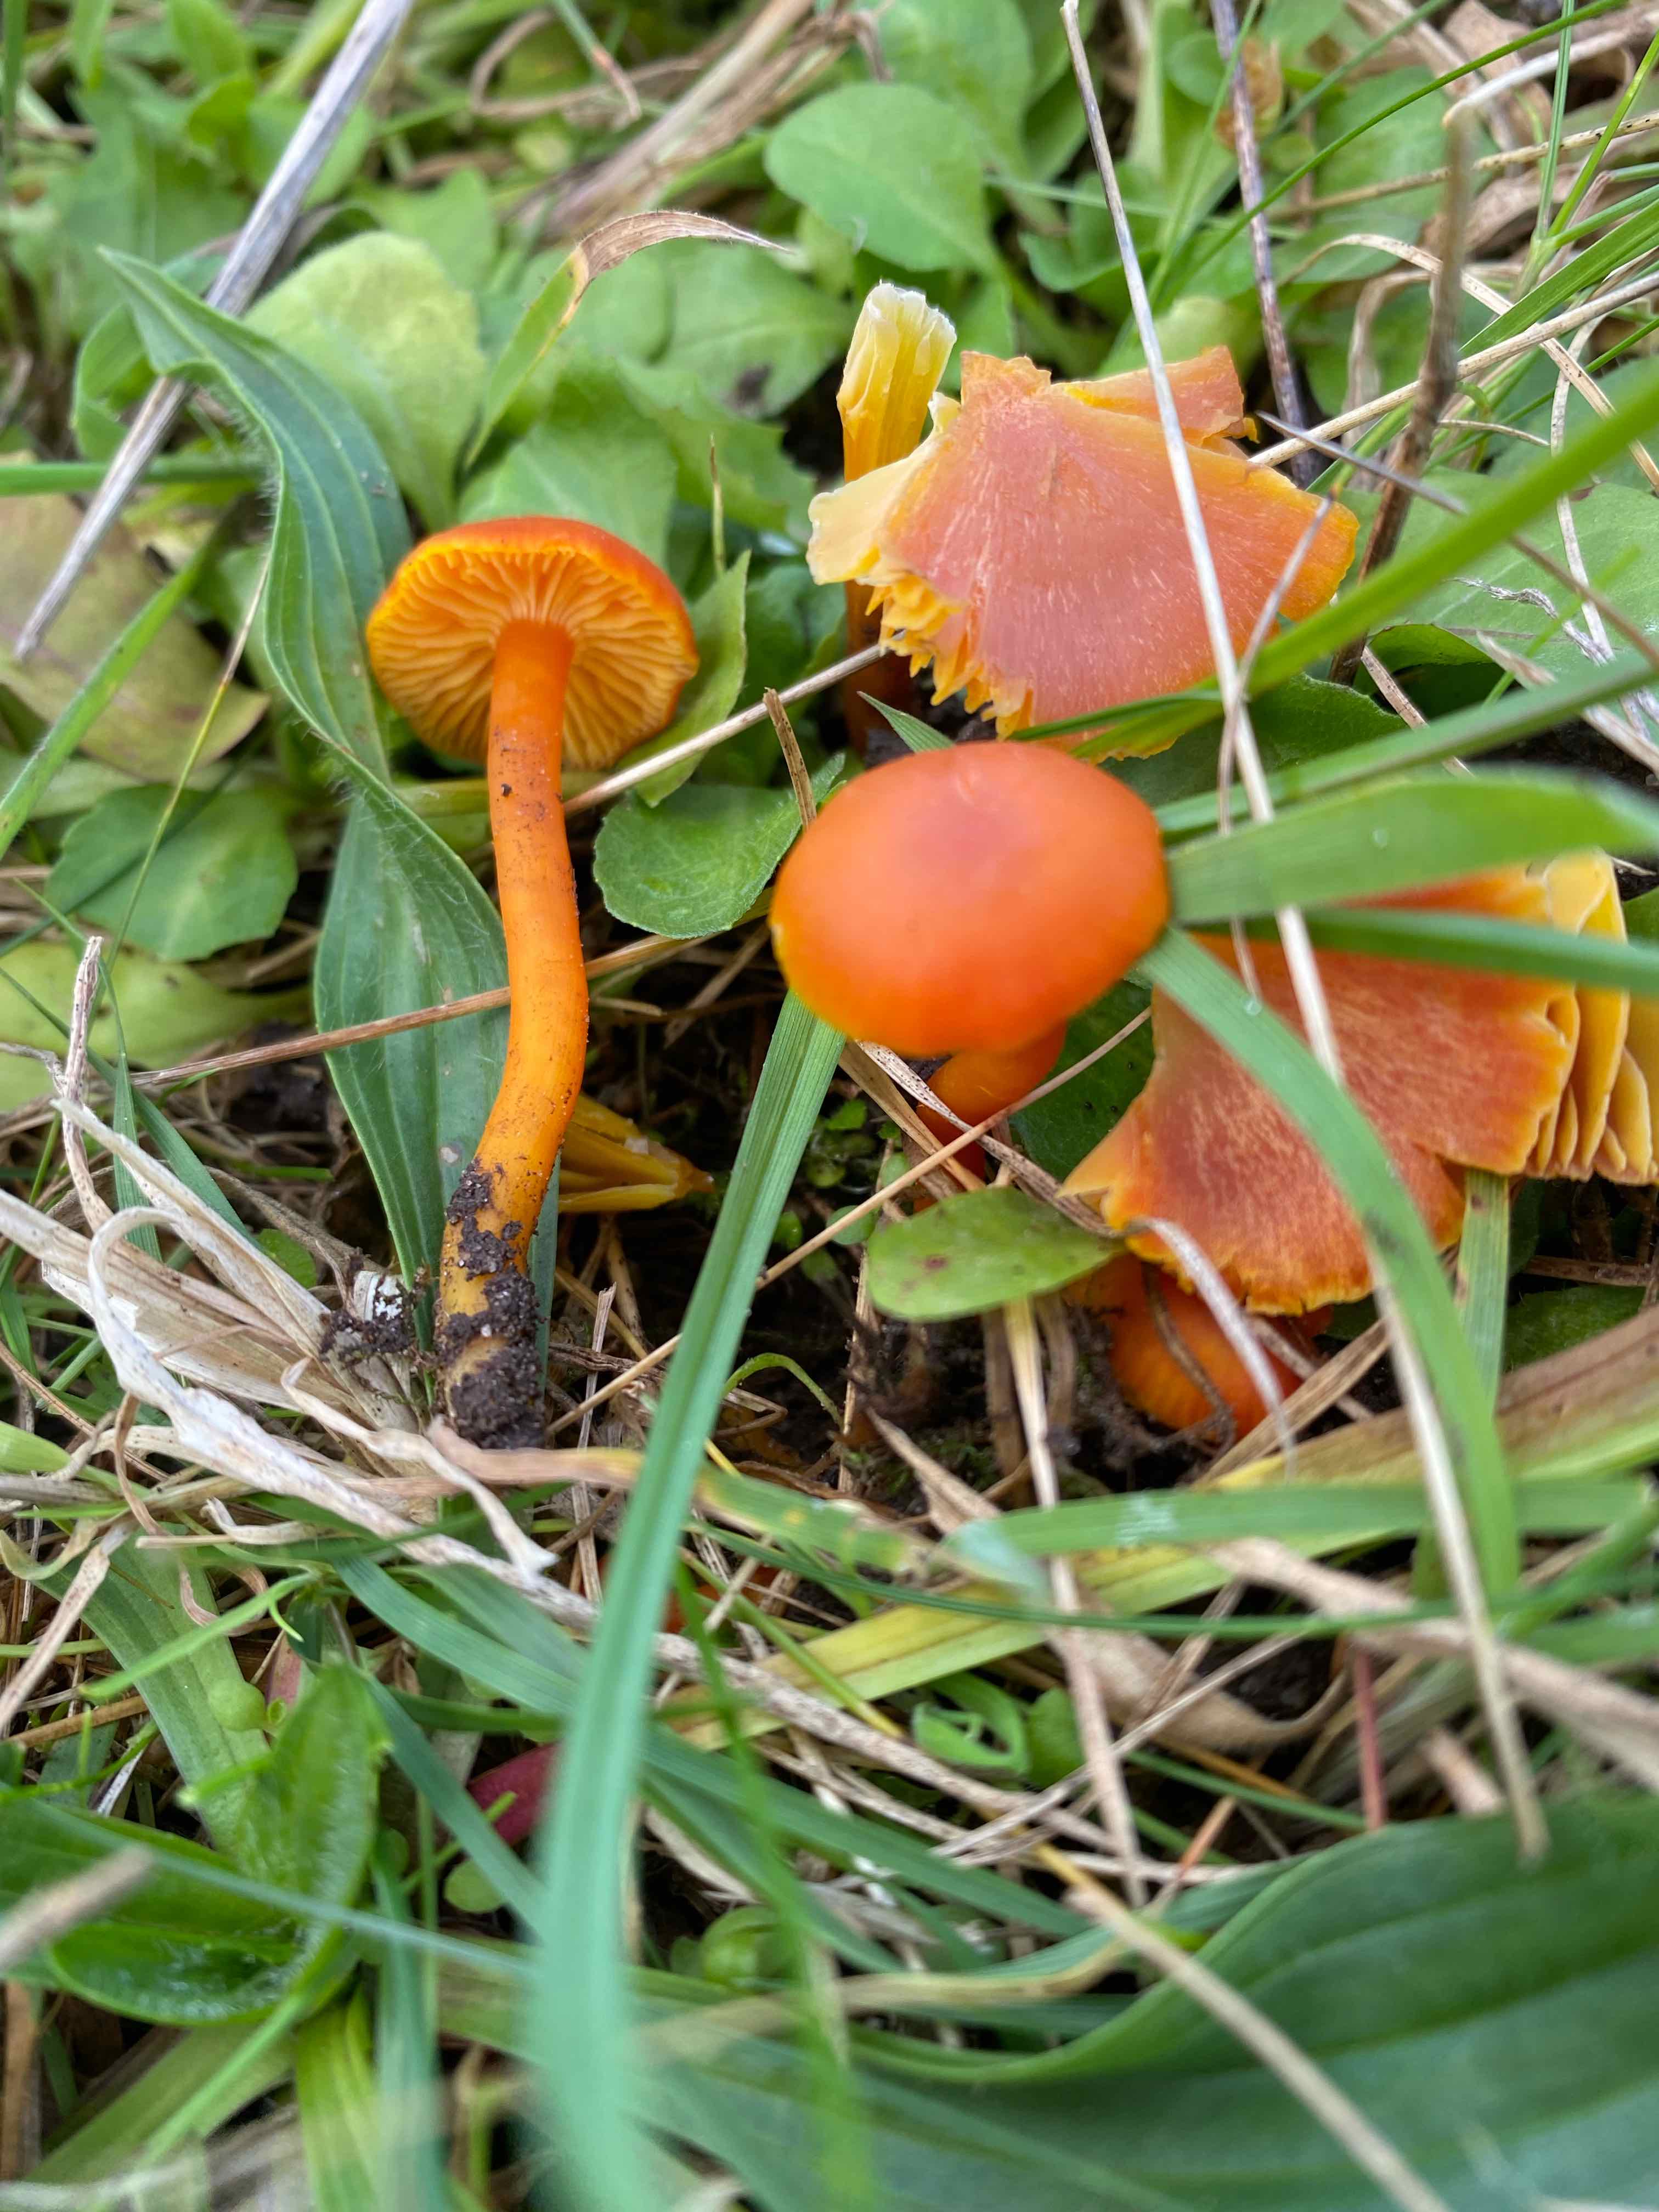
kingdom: Fungi
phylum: Basidiomycota
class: Agaricomycetes
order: Agaricales
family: Hygrophoraceae
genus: Hygrocybe
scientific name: Hygrocybe miniata
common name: mønje-vokshat
